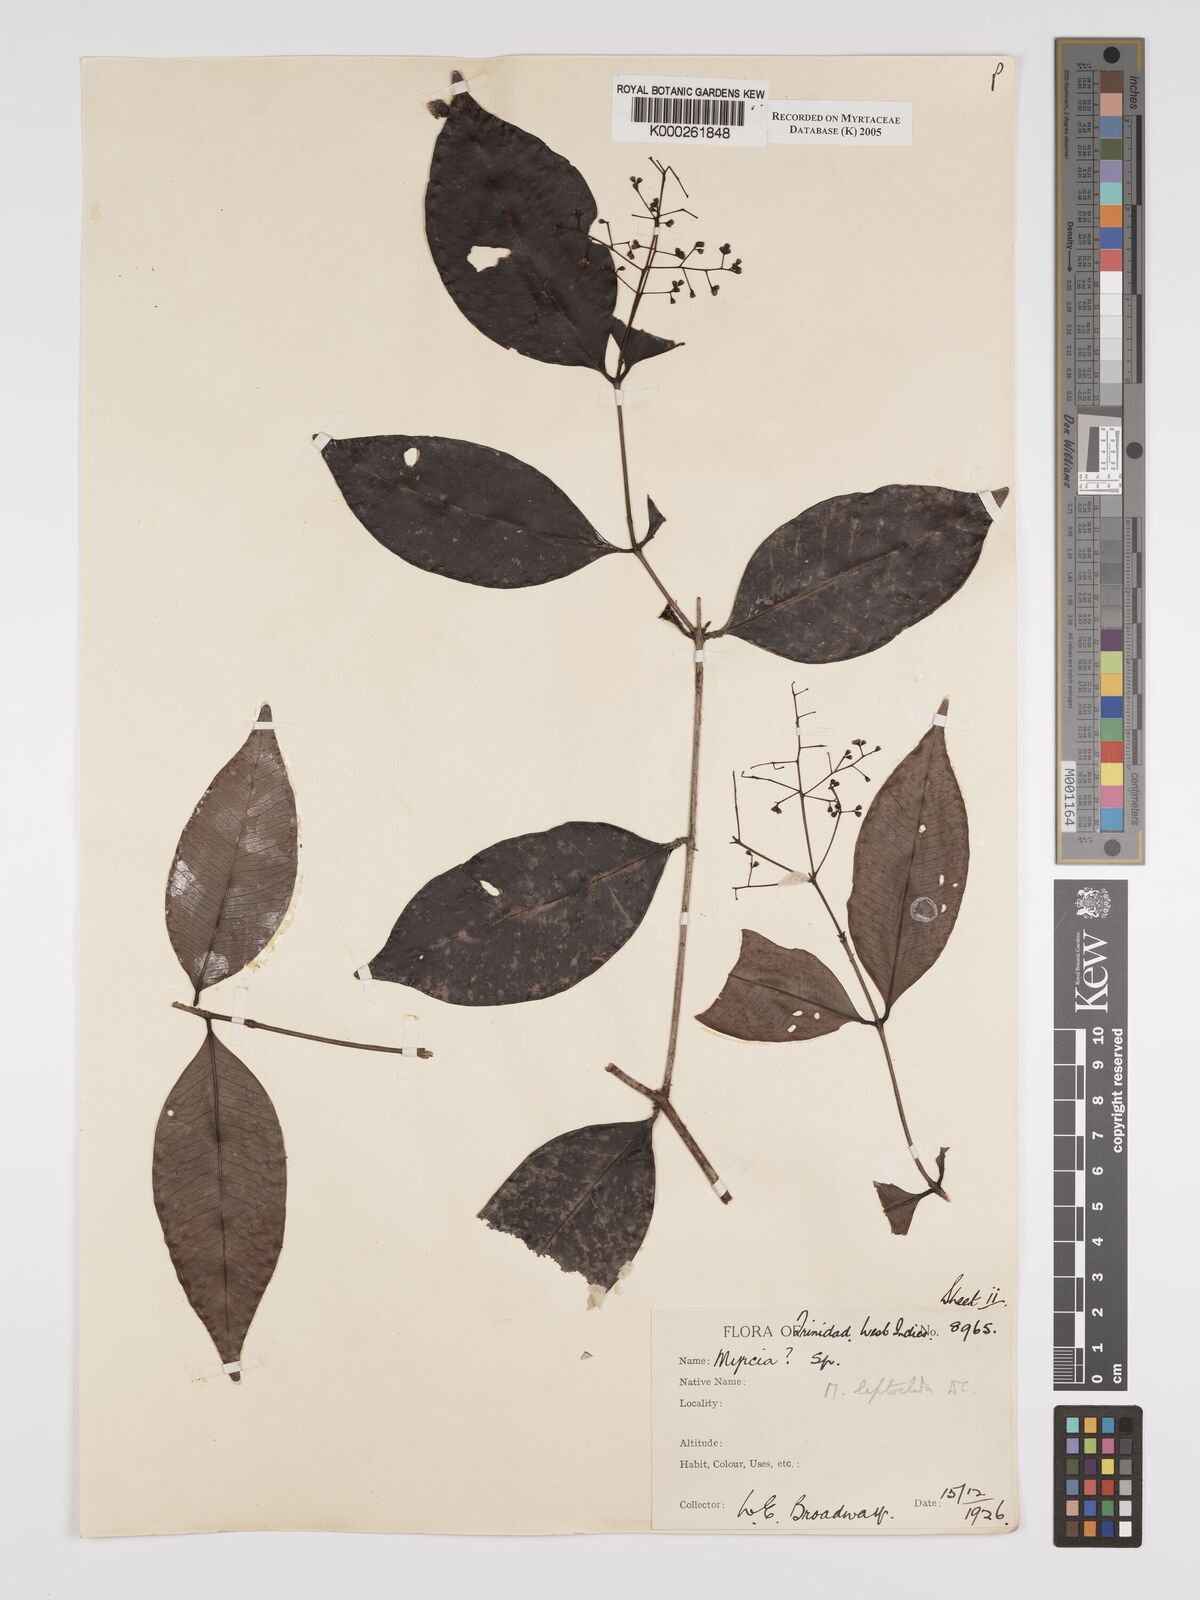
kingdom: Plantae
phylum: Tracheophyta
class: Magnoliopsida
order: Myrtales
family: Myrtaceae
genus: Myrcia
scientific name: Myrcia amazonica
